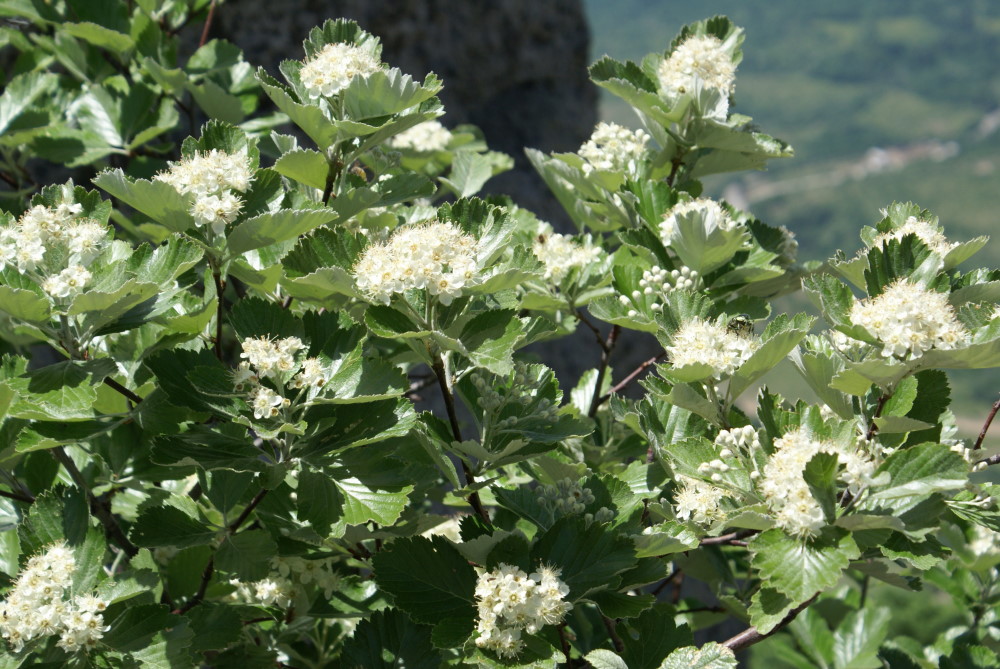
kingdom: Plantae
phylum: Tracheophyta
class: Magnoliopsida
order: Rosales
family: Rosaceae
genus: Crataegus
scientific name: Crataegus
